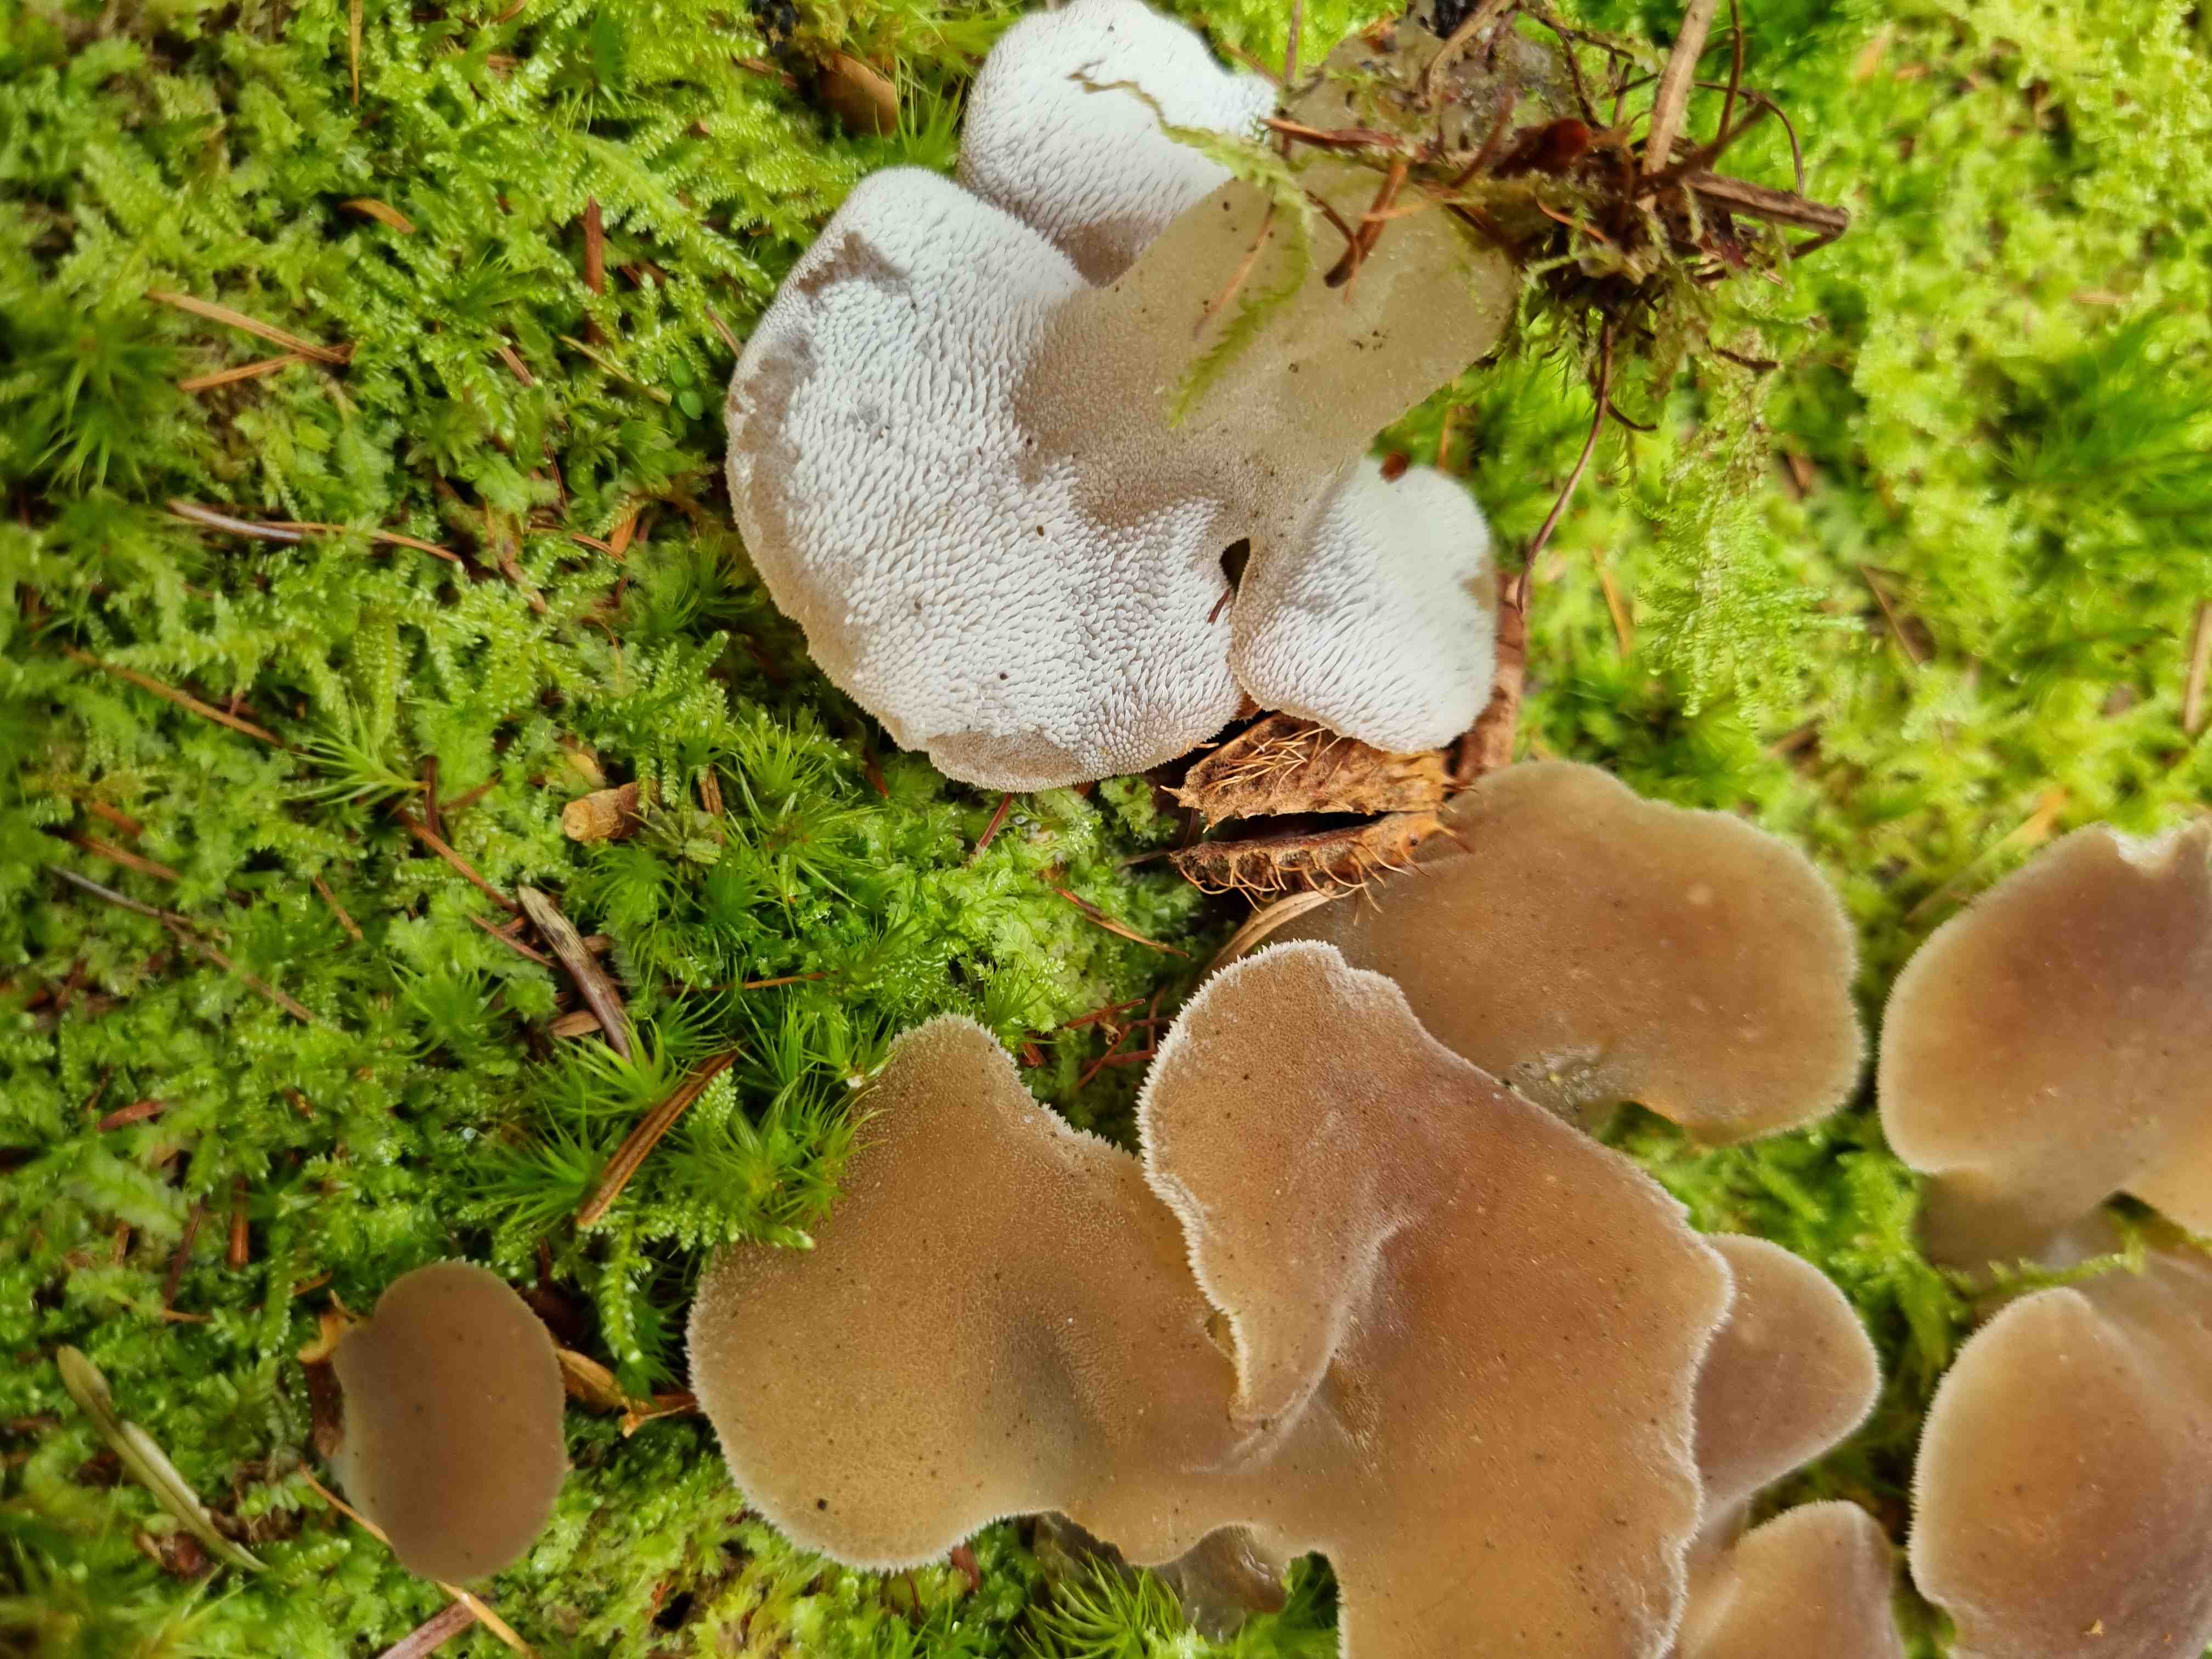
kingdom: Fungi
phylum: Basidiomycota
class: Agaricomycetes
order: Auriculariales
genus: Pseudohydnum
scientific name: Pseudohydnum gelatinosum
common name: bævretand
